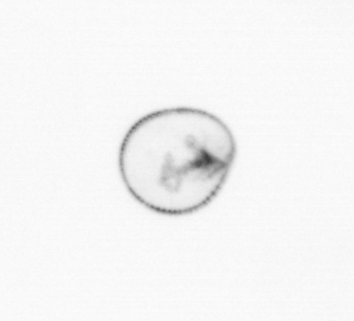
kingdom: Chromista
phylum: Myzozoa
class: Dinophyceae
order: Noctilucales
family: Noctilucaceae
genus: Noctiluca
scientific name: Noctiluca scintillans
